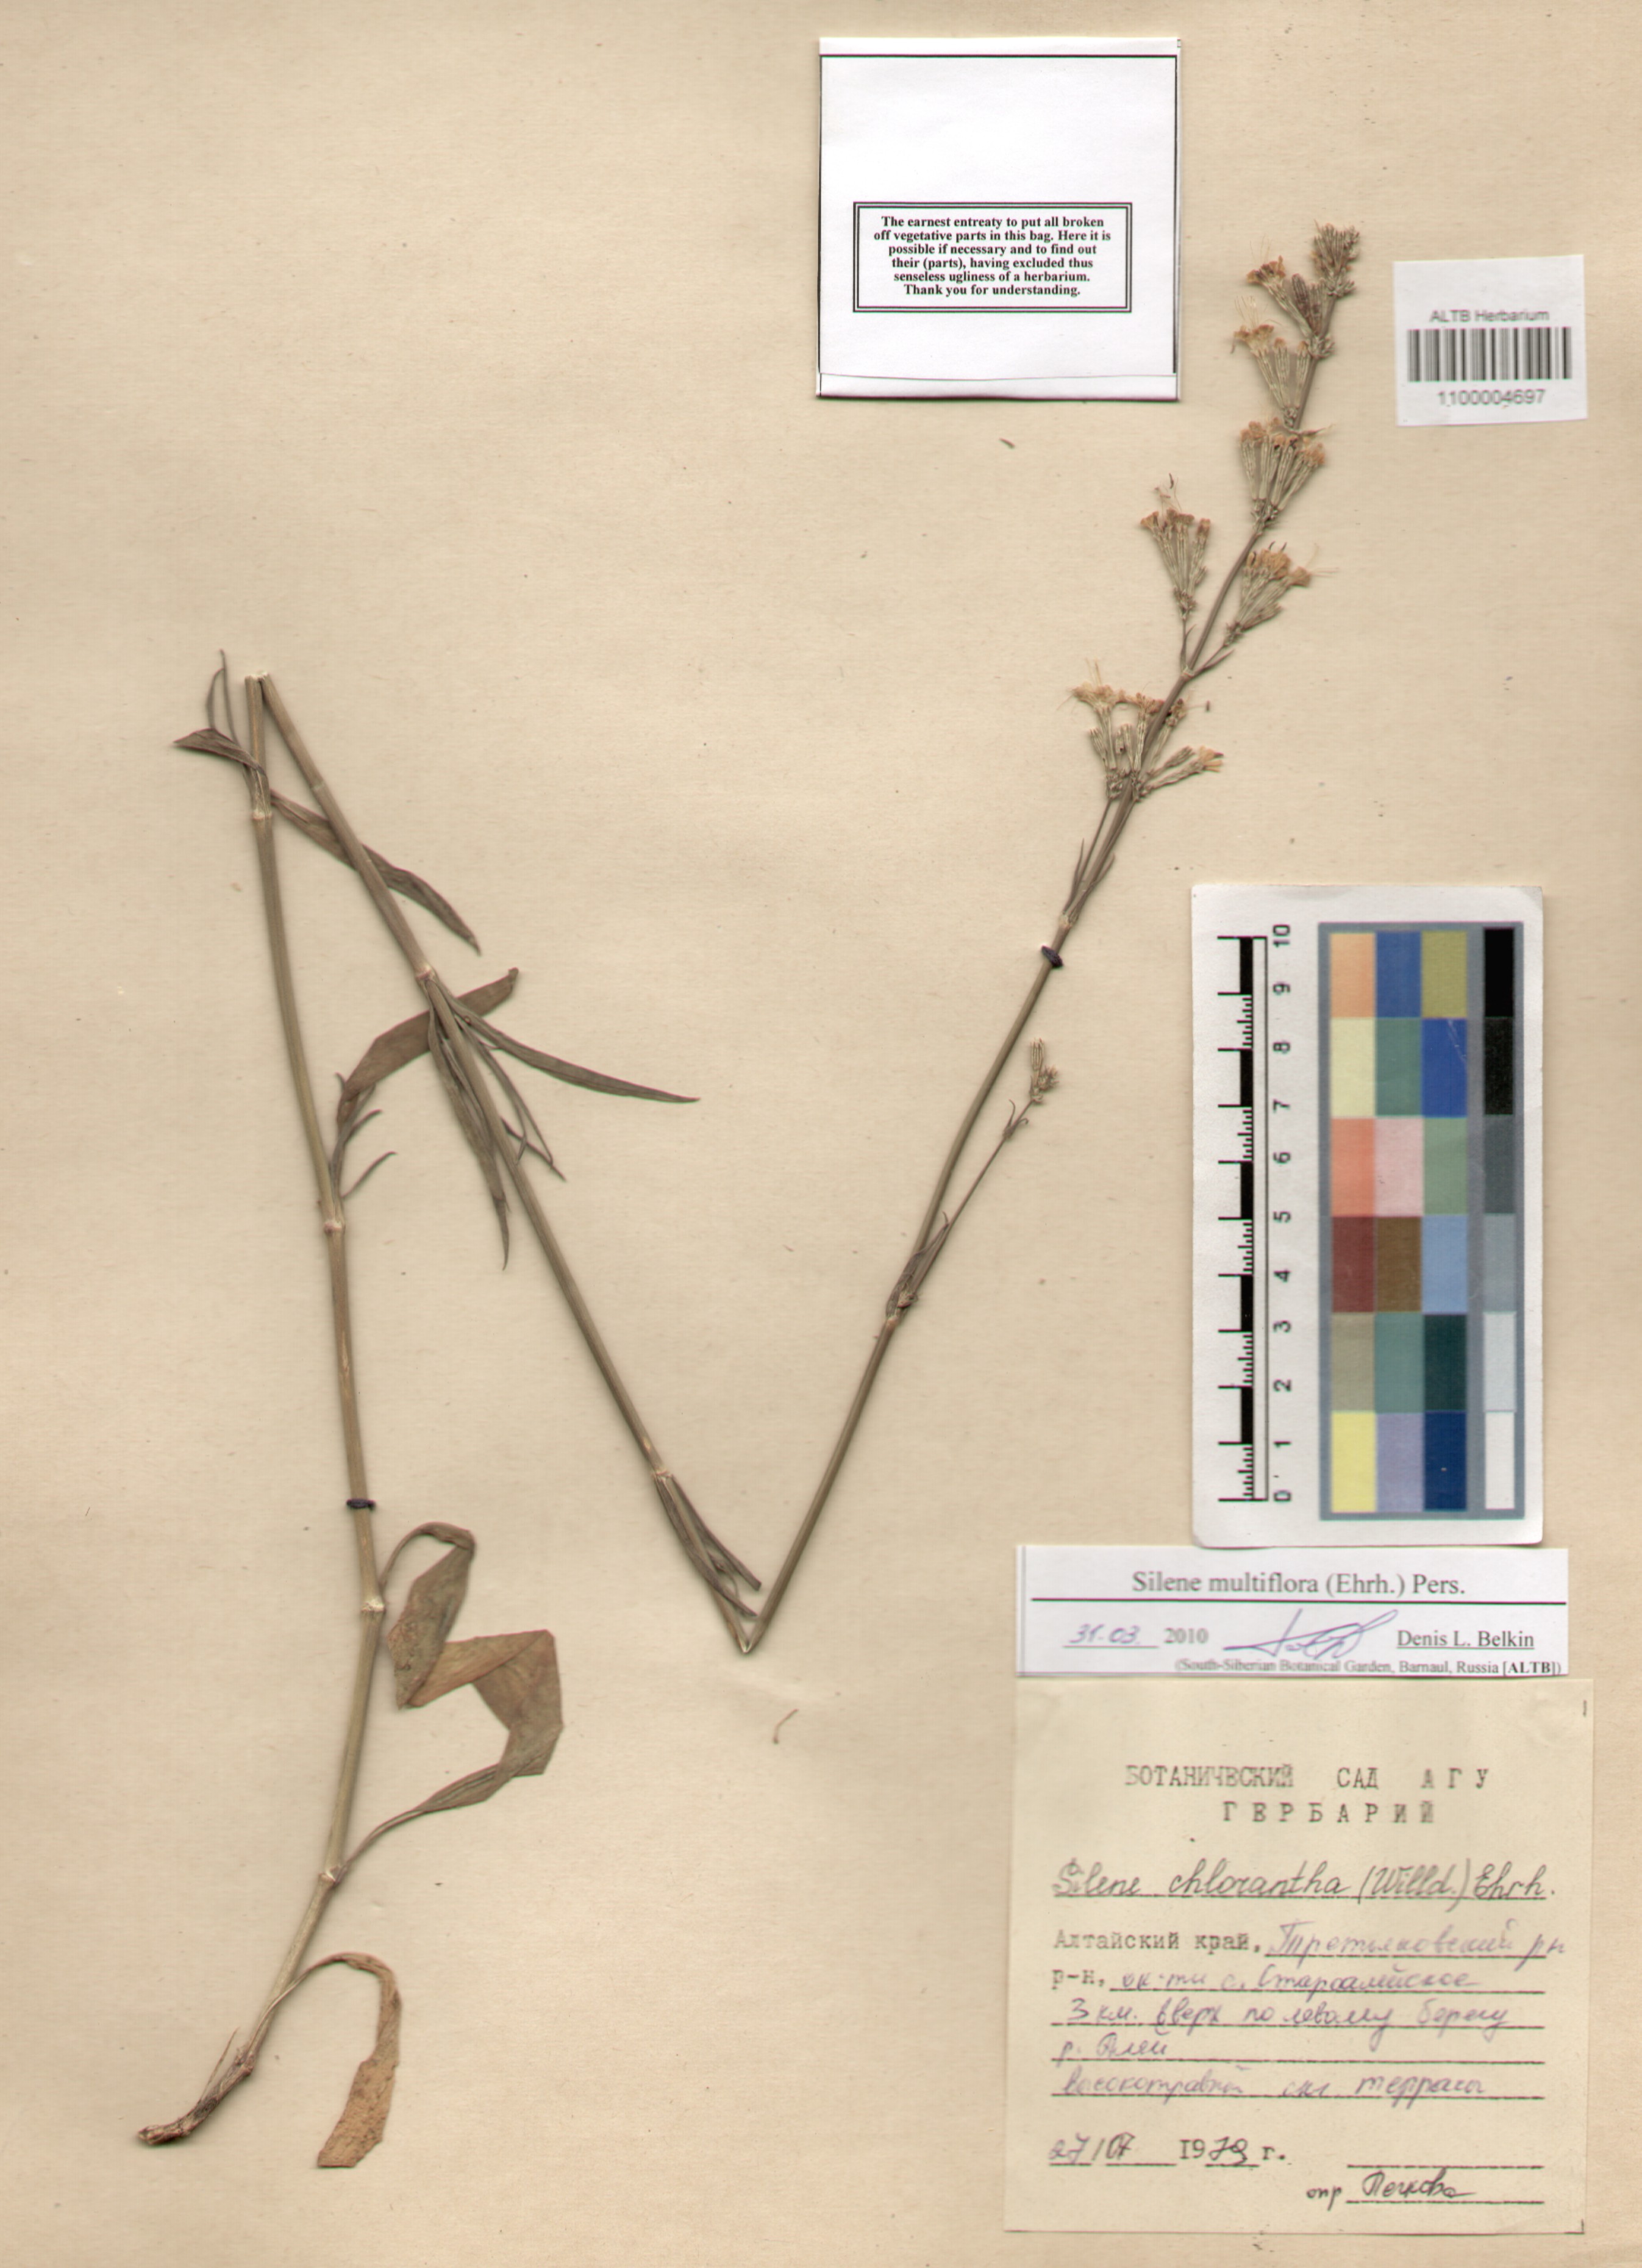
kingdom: Plantae
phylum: Tracheophyta
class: Magnoliopsida
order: Caryophyllales
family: Caryophyllaceae
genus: Silene
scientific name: Silene multiflora
